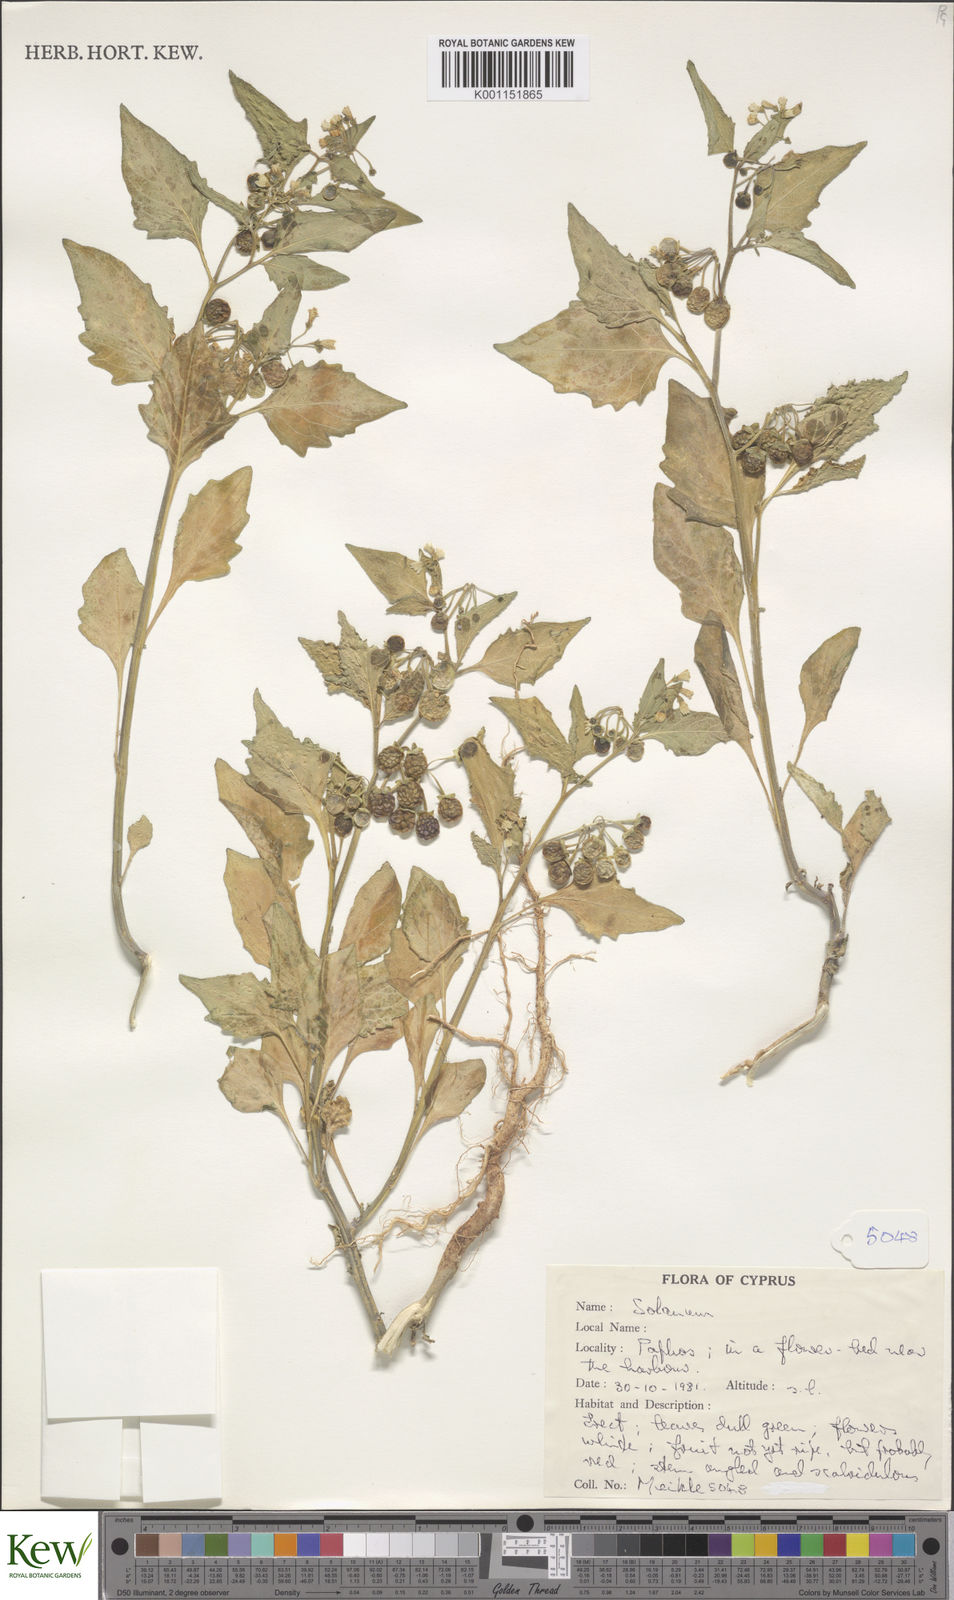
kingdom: Plantae
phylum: Tracheophyta
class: Magnoliopsida
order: Solanales
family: Solanaceae
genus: Solanum
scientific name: Solanum villosum
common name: Red nightshade
